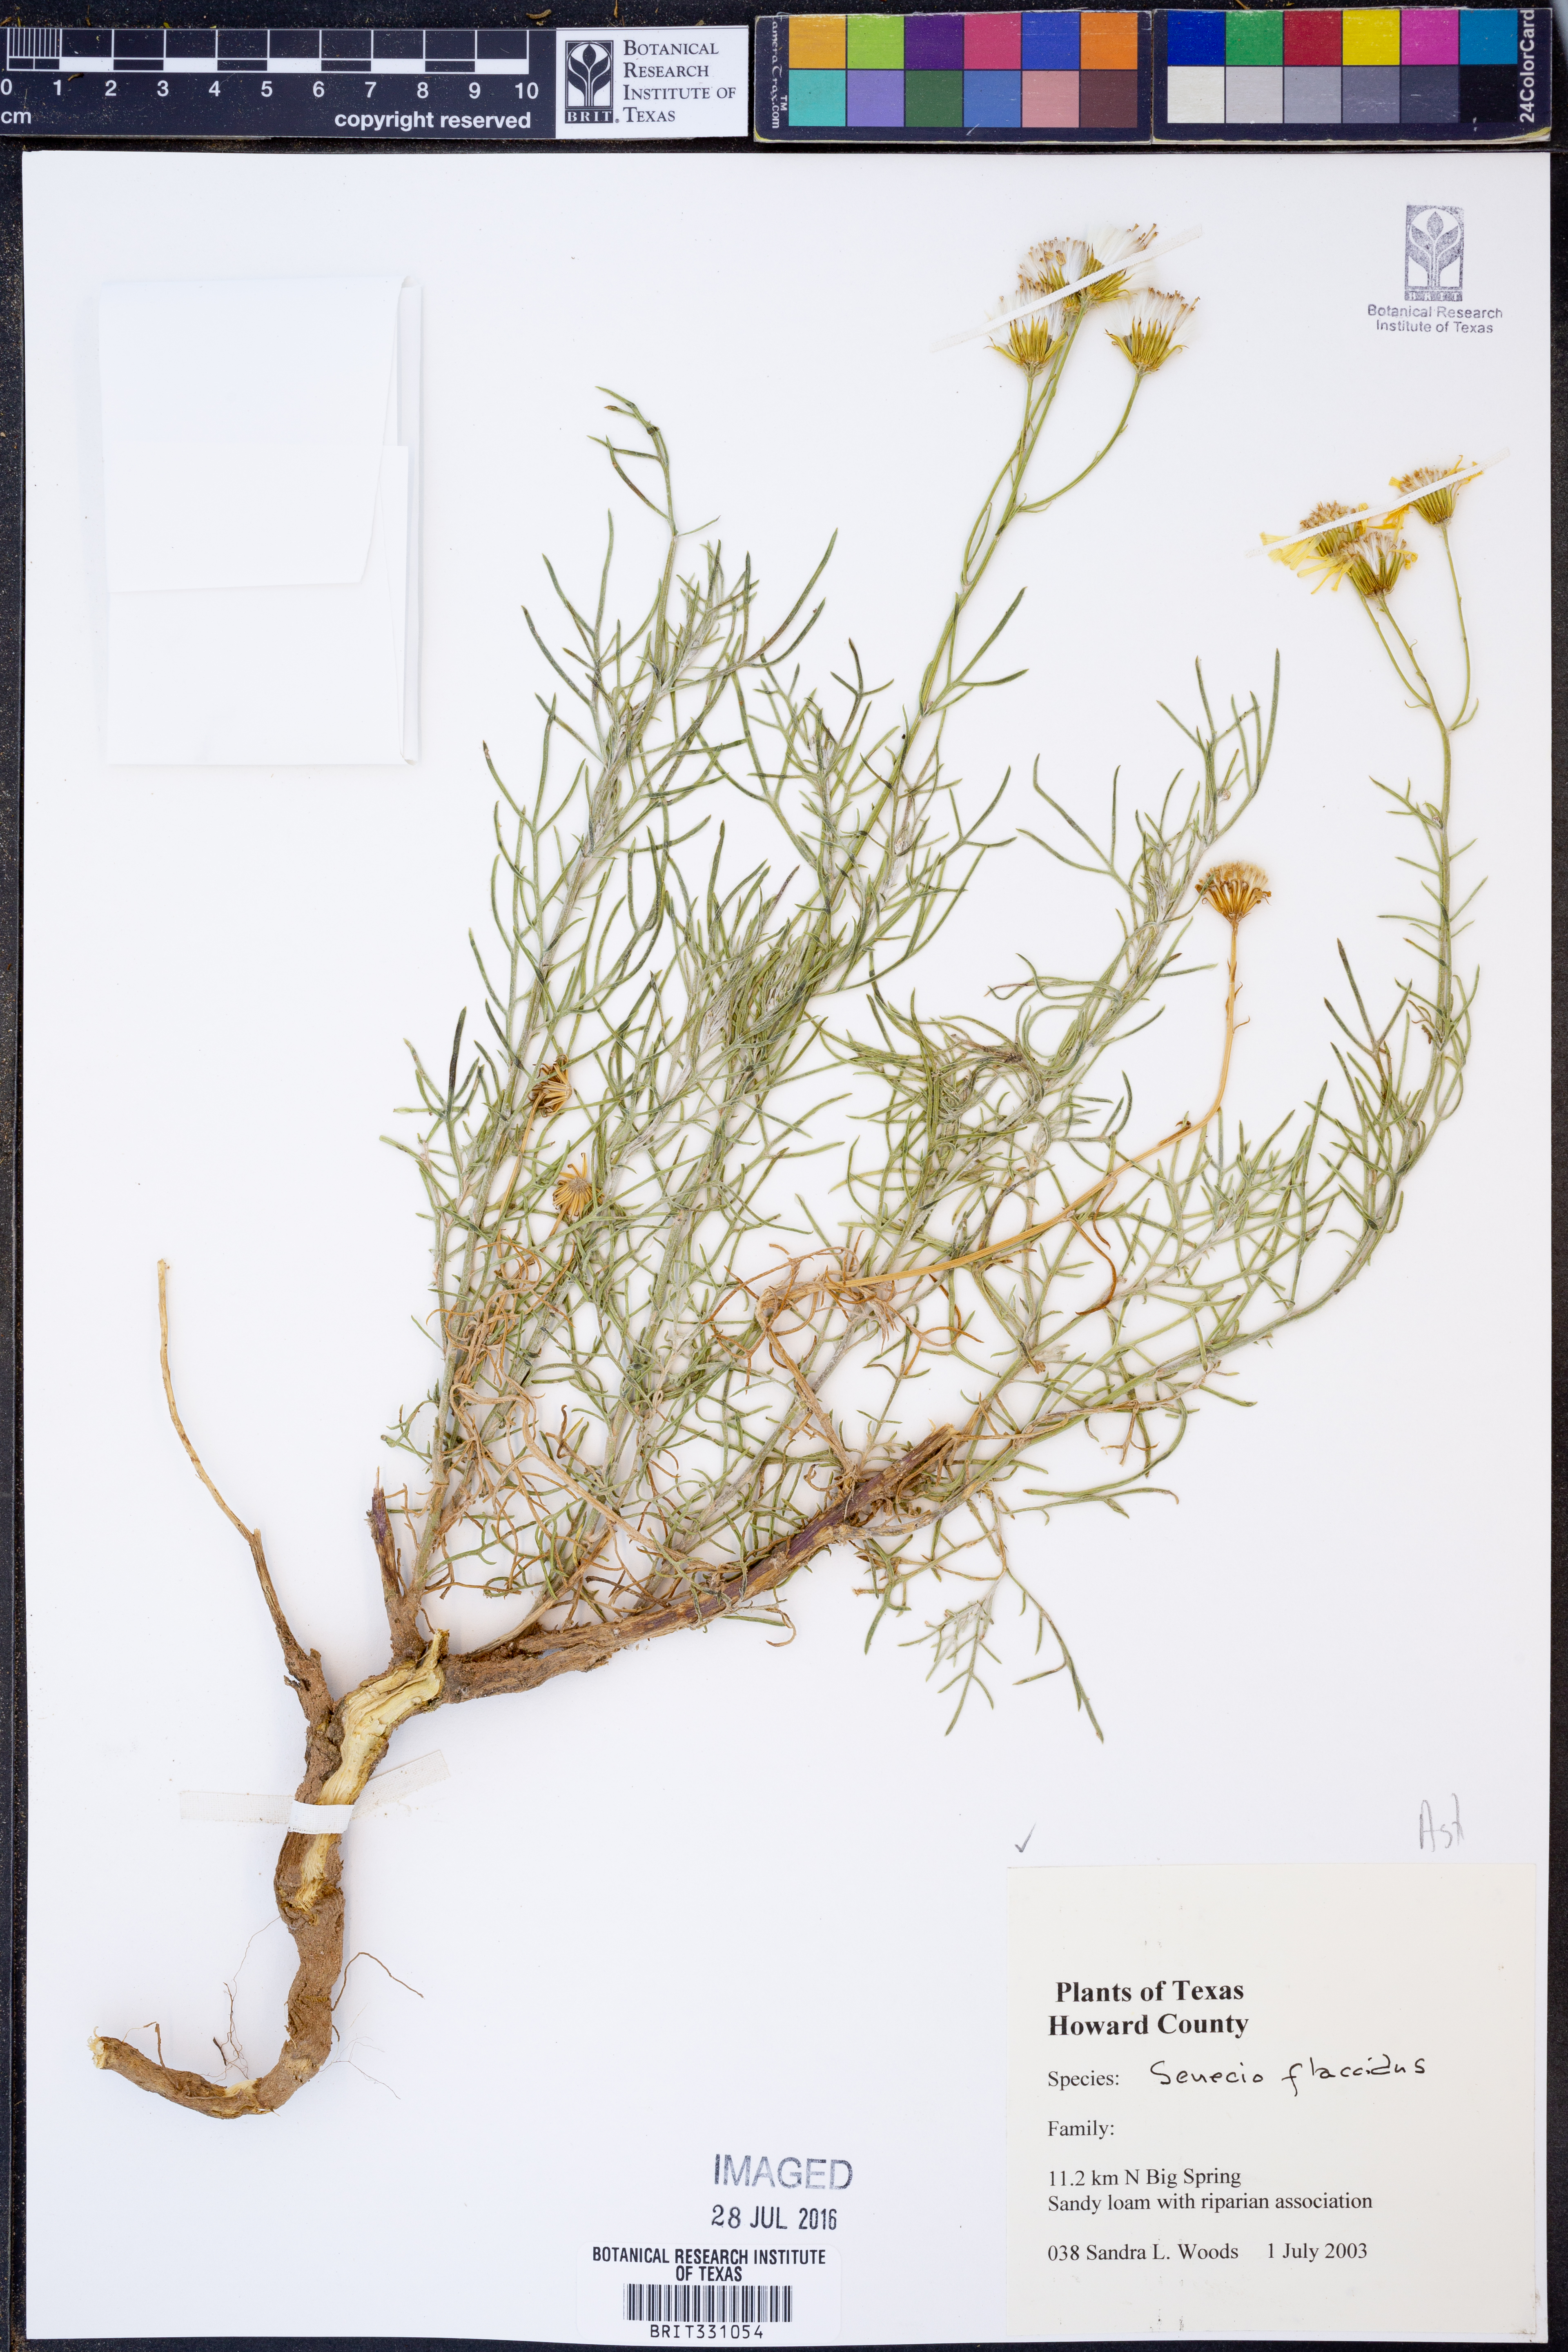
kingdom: Plantae
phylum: Tracheophyta
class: Magnoliopsida
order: Asterales
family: Asteraceae
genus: Senecio
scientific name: Senecio flaccidus
